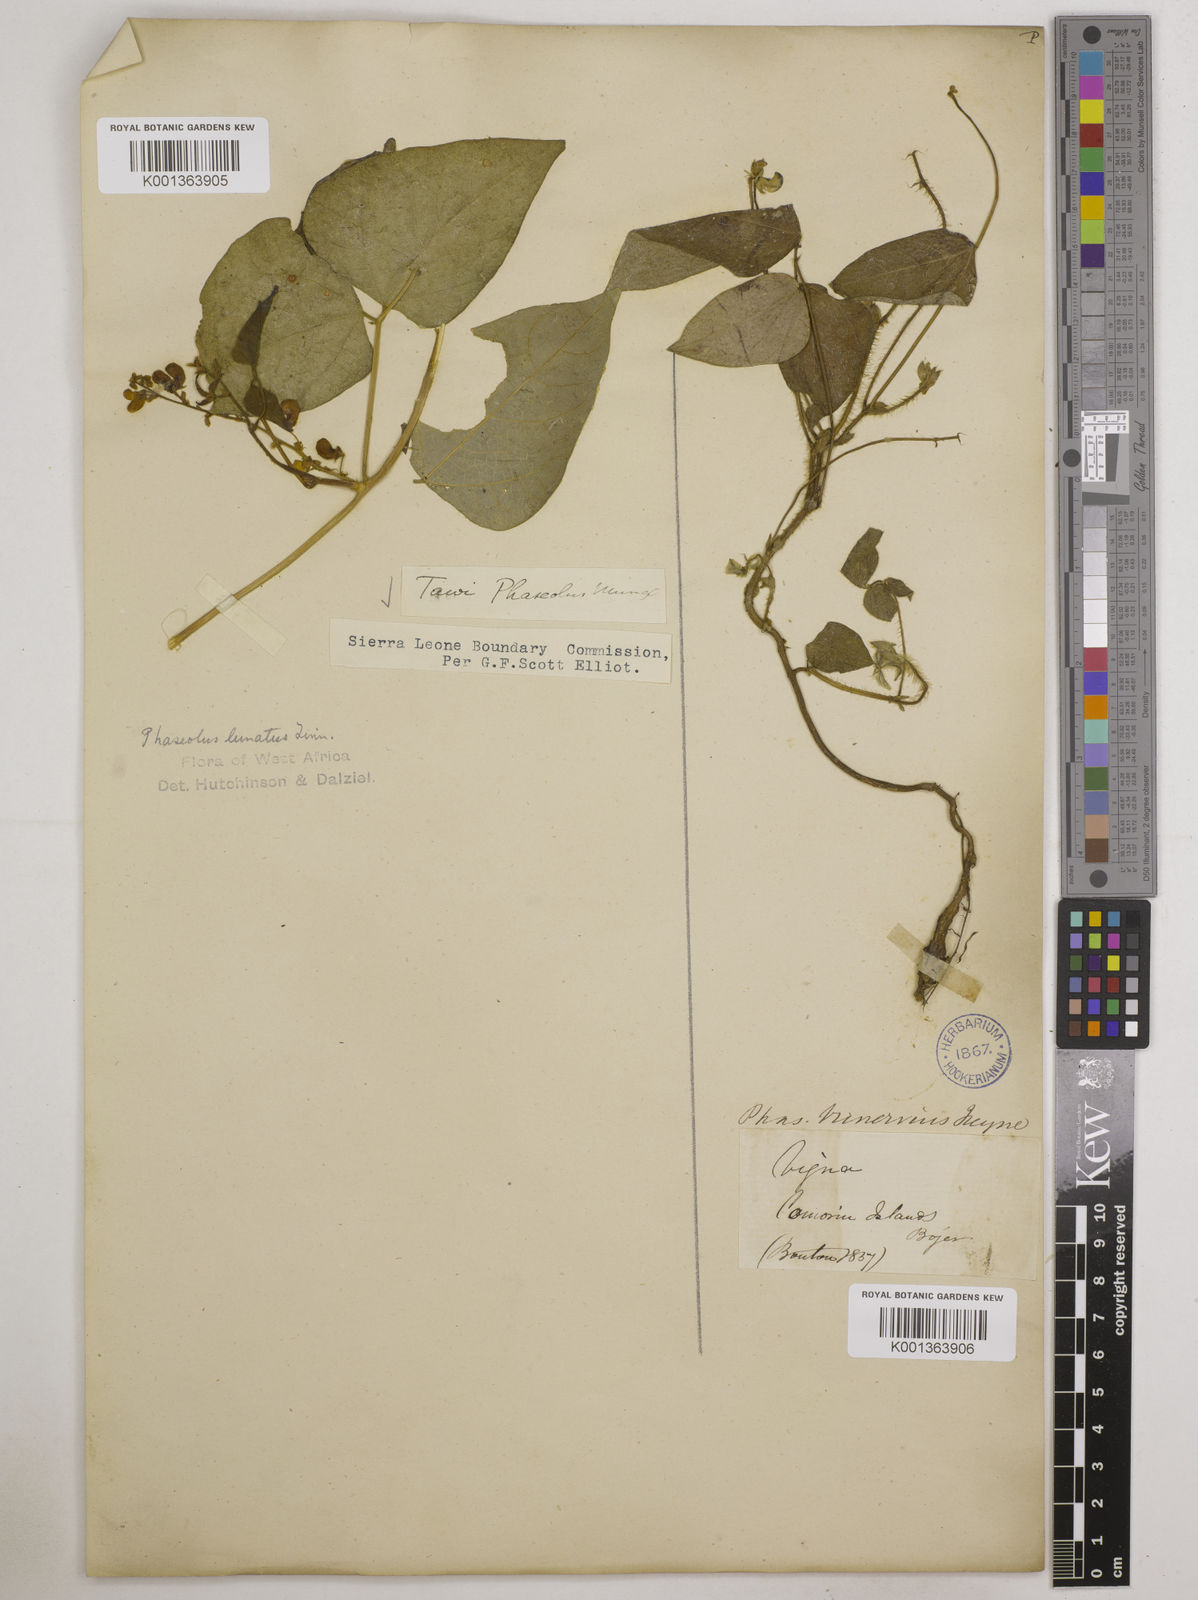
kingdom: Plantae
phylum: Tracheophyta
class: Magnoliopsida
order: Fabales
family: Fabaceae
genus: Phaseolus
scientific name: Phaseolus lunatus
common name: Sieva bean
